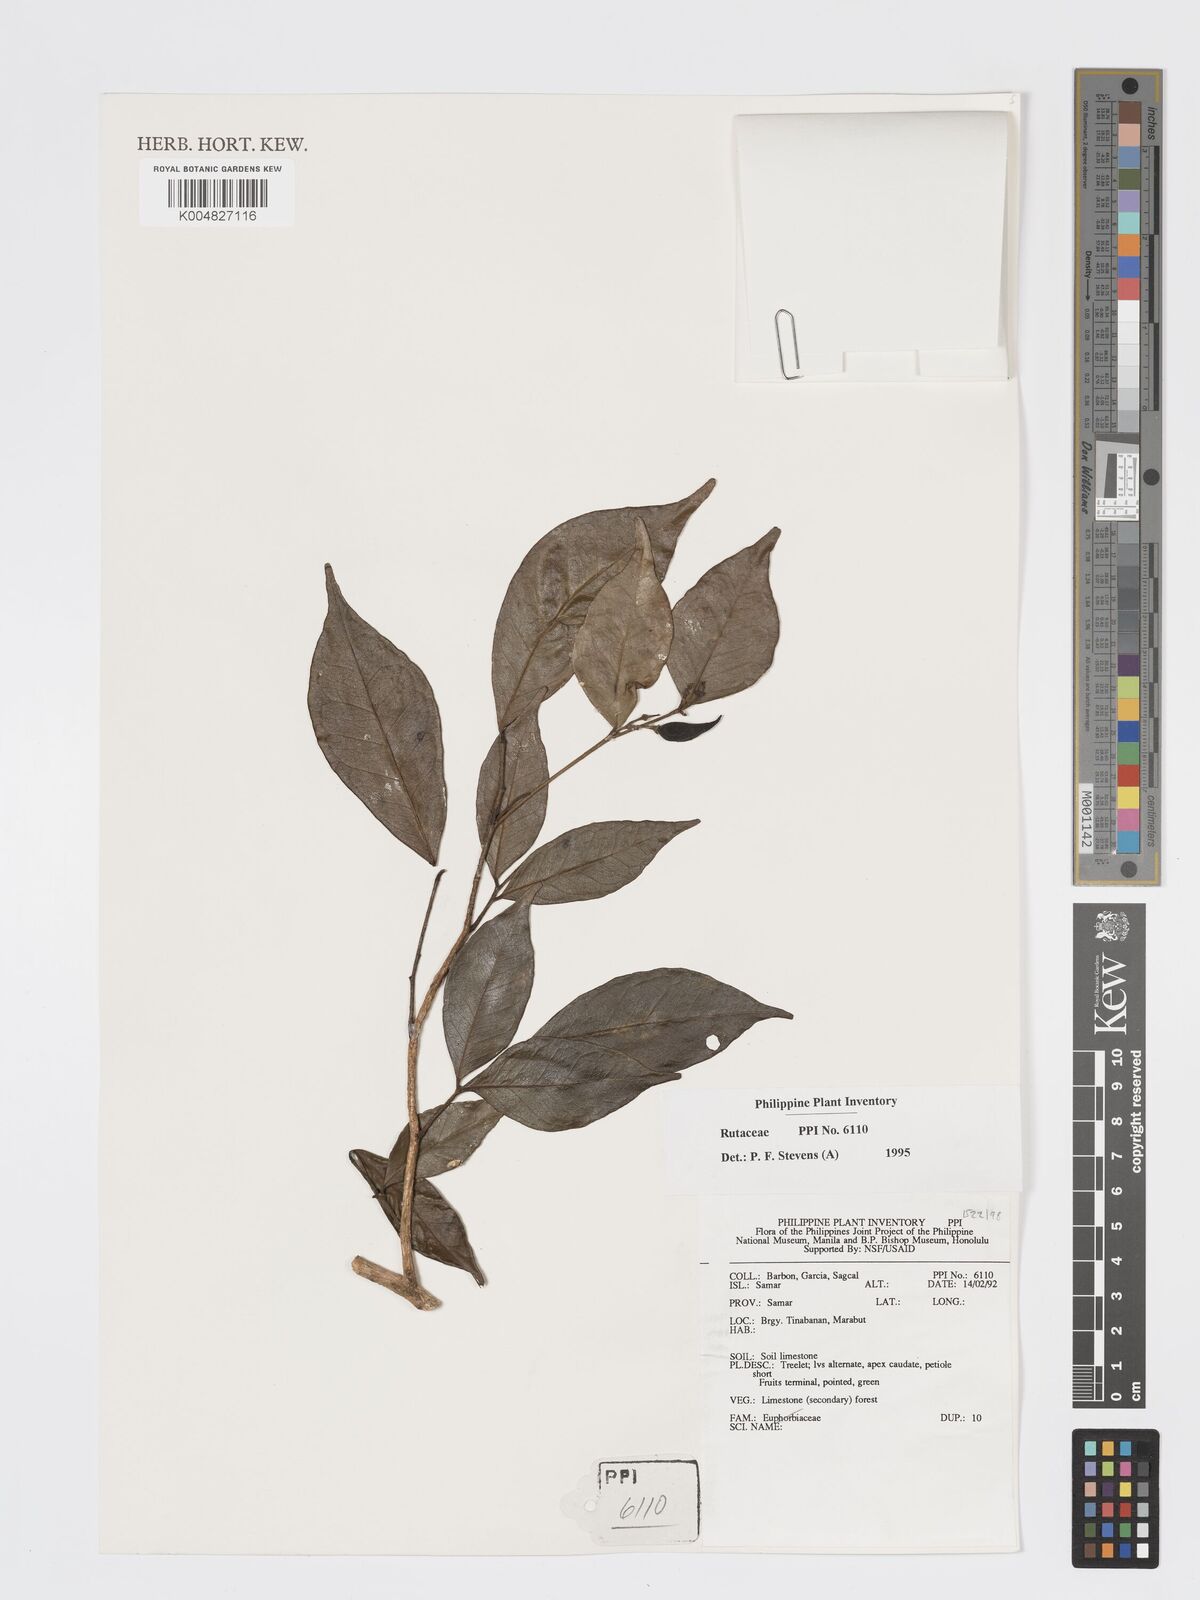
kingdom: Plantae
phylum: Tracheophyta
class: Magnoliopsida
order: Sapindales
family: Rutaceae
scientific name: Rutaceae
